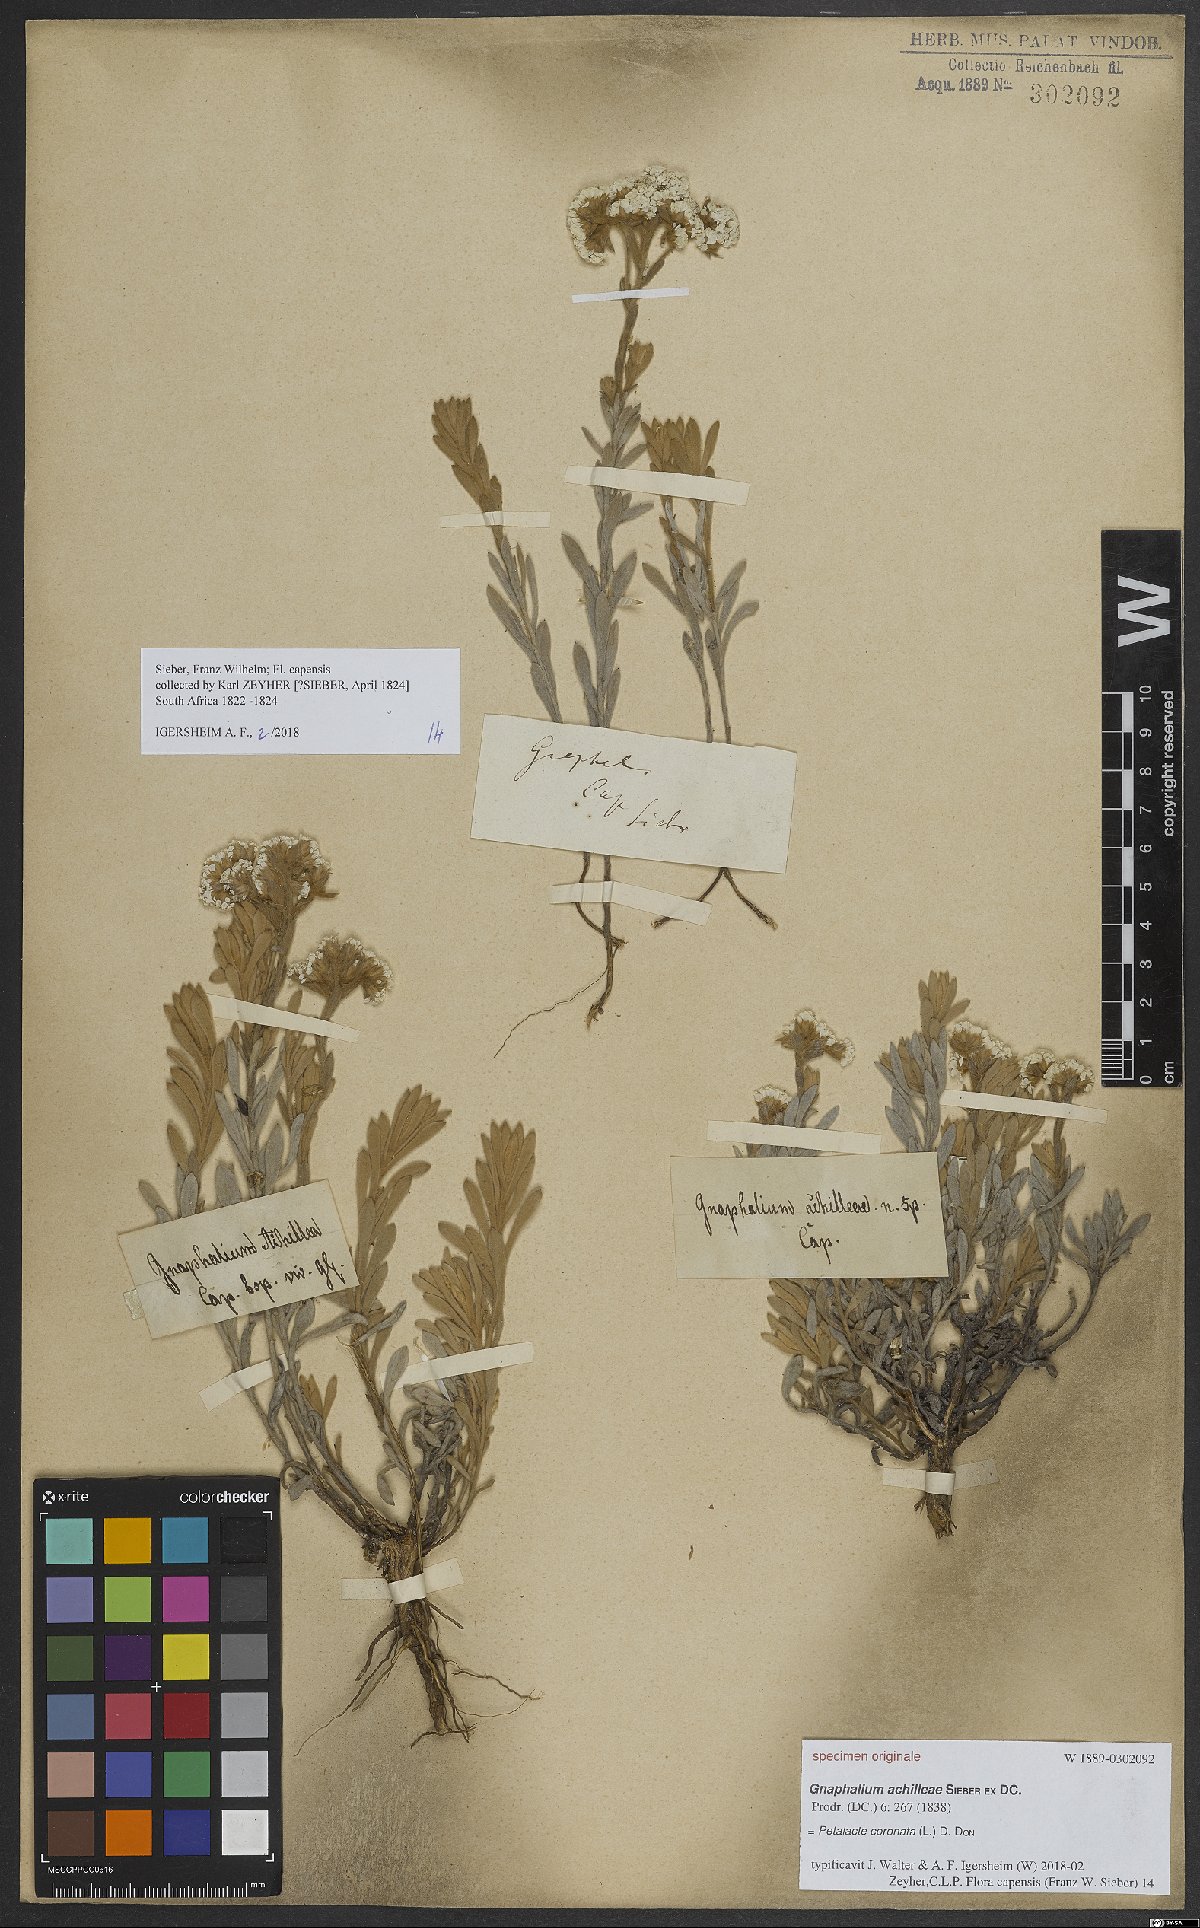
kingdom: Plantae
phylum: Tracheophyta
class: Magnoliopsida
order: Asterales
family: Asteraceae
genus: Petalacte
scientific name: Petalacte coronata
